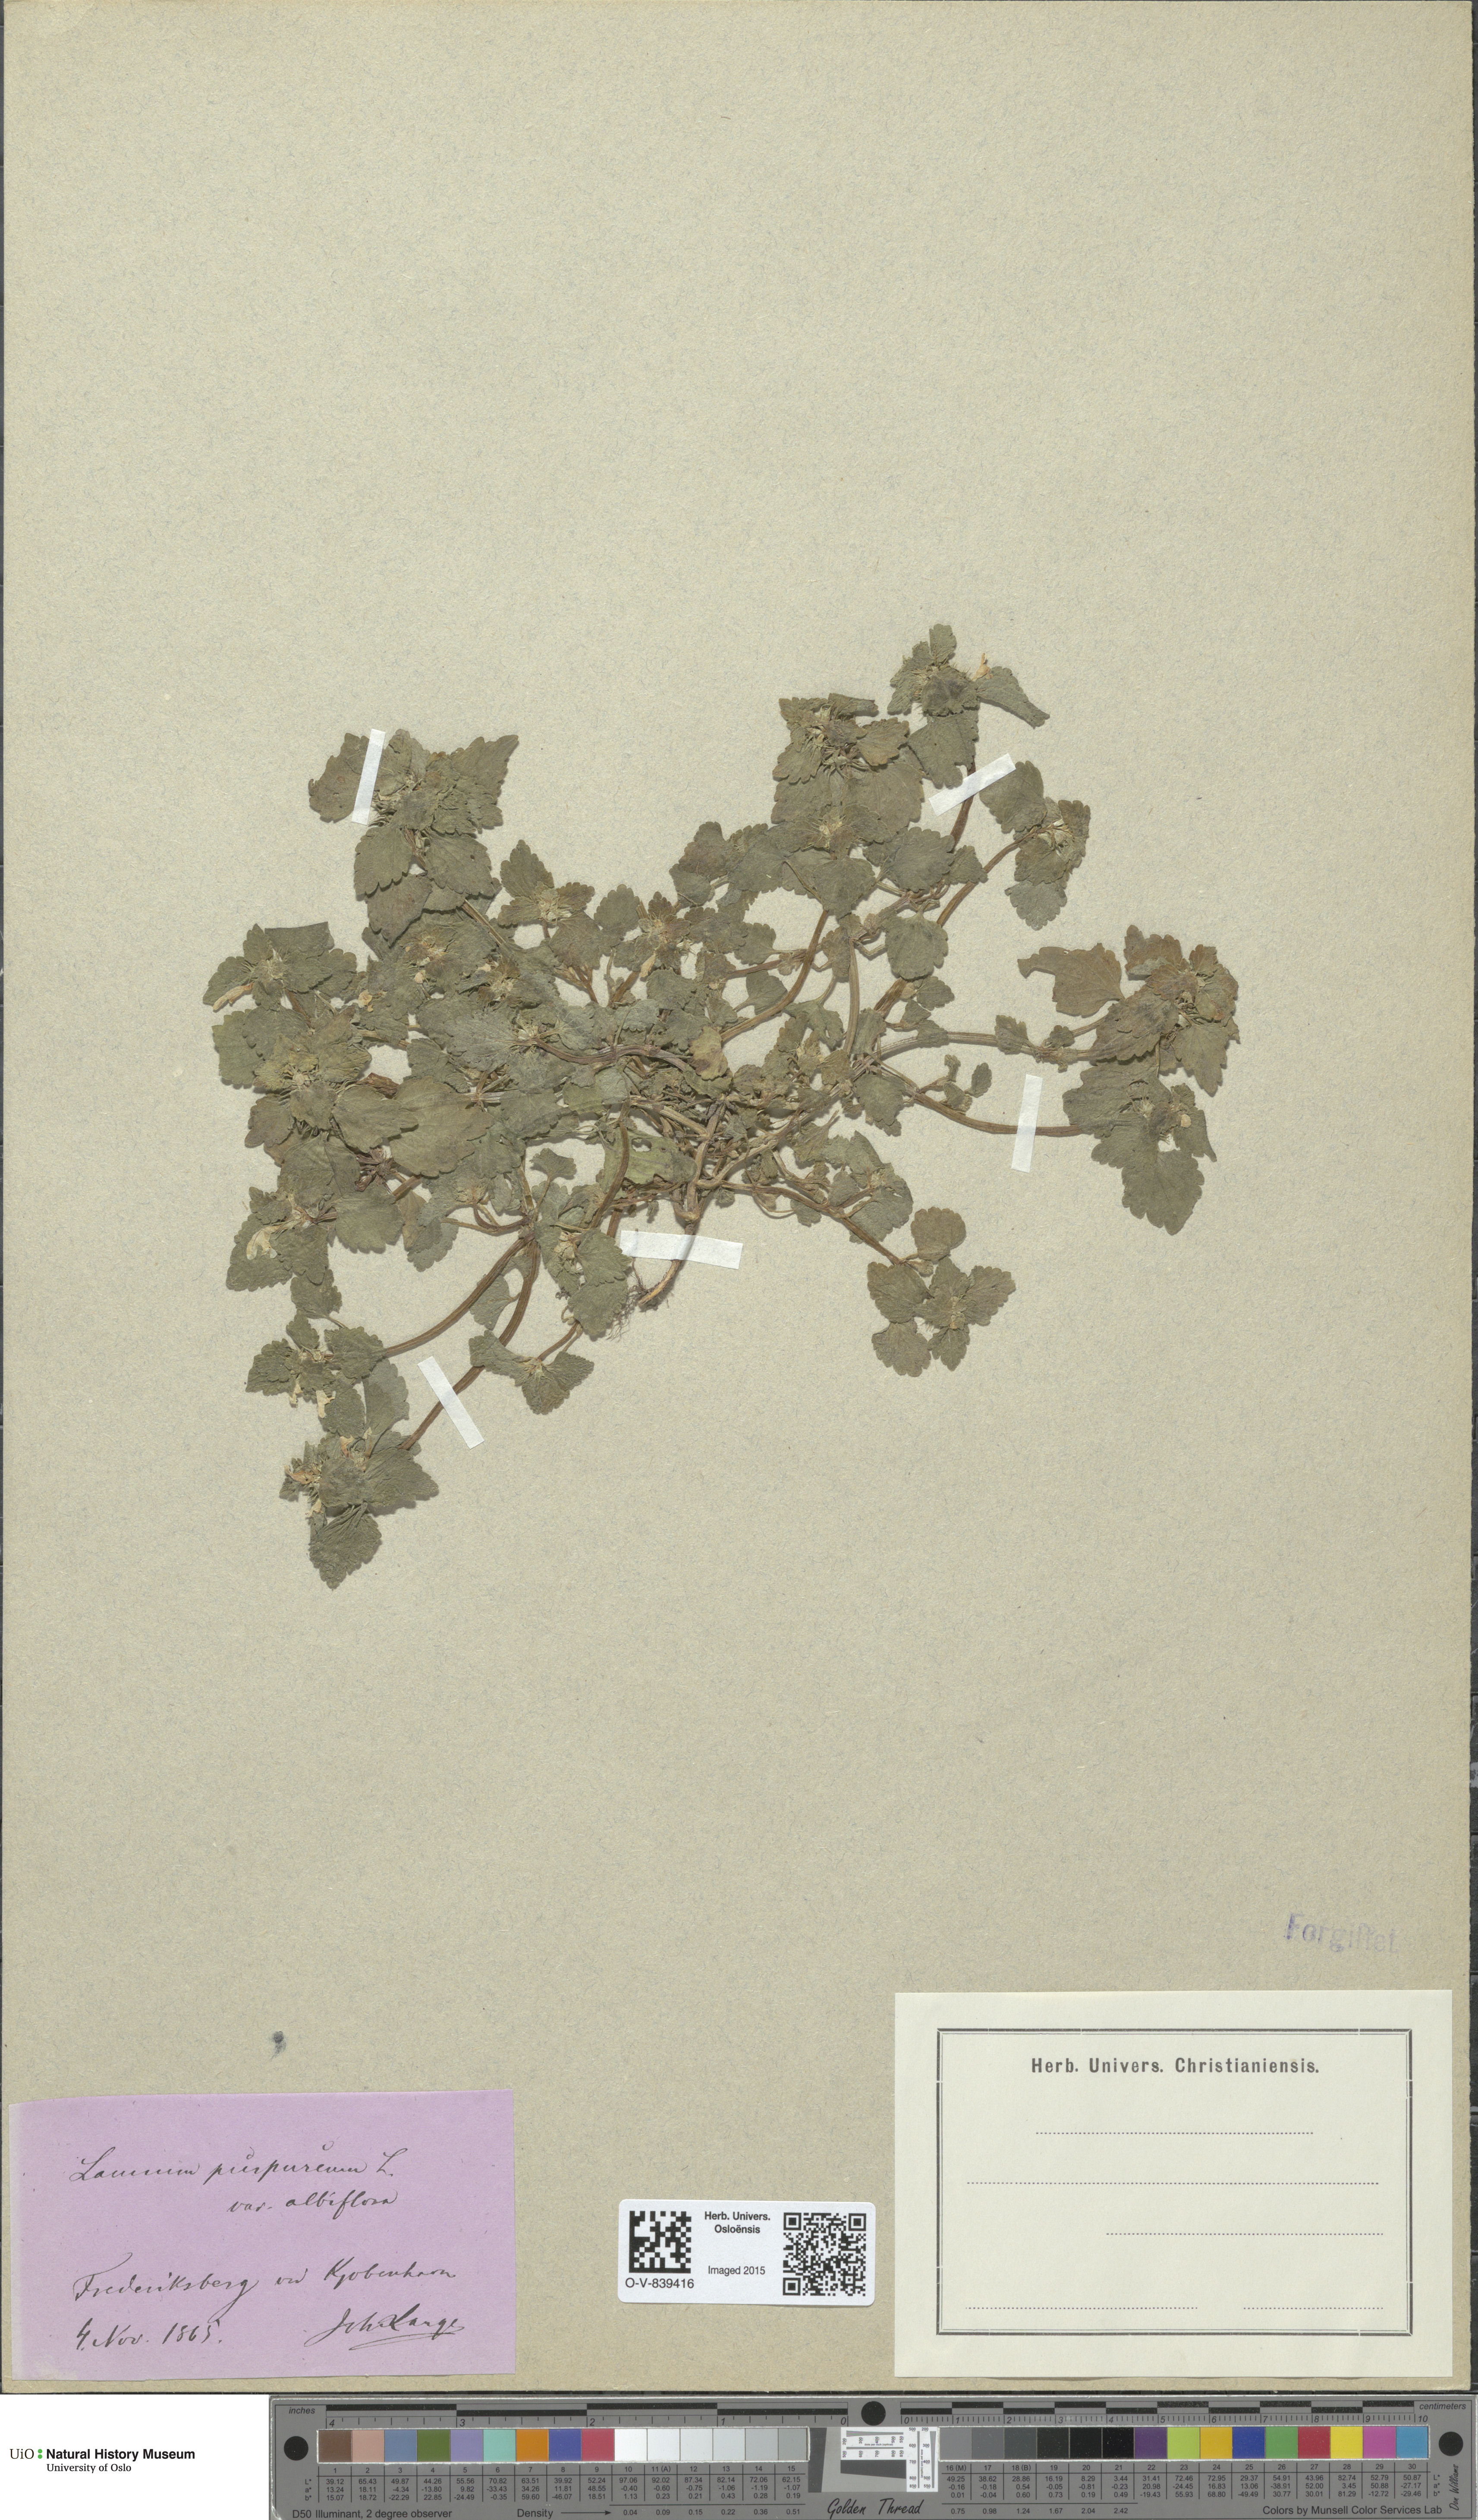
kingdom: Plantae
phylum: Tracheophyta
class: Magnoliopsida
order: Lamiales
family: Lamiaceae
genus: Lamium
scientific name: Lamium purpureum
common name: Red dead-nettle
